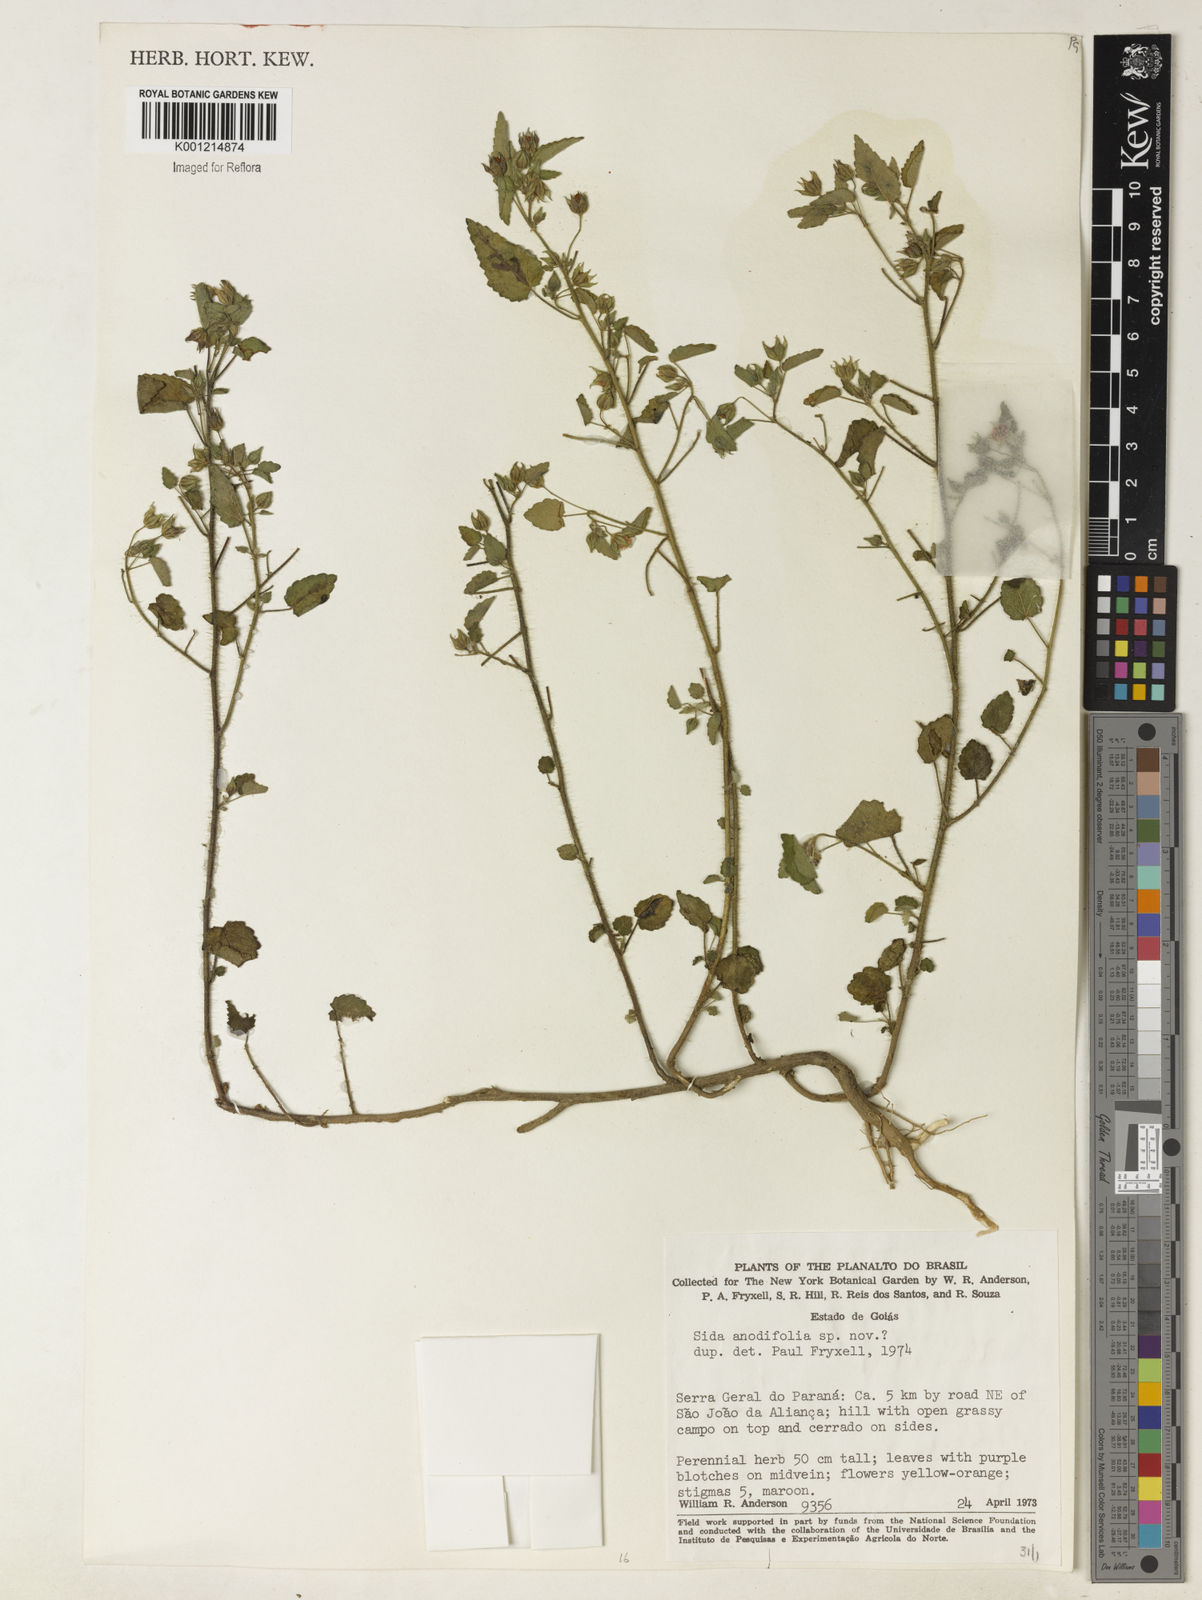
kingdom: Plantae
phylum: Tracheophyta
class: Magnoliopsida
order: Malvales
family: Malvaceae
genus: Sida
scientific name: Sida anodifolia
